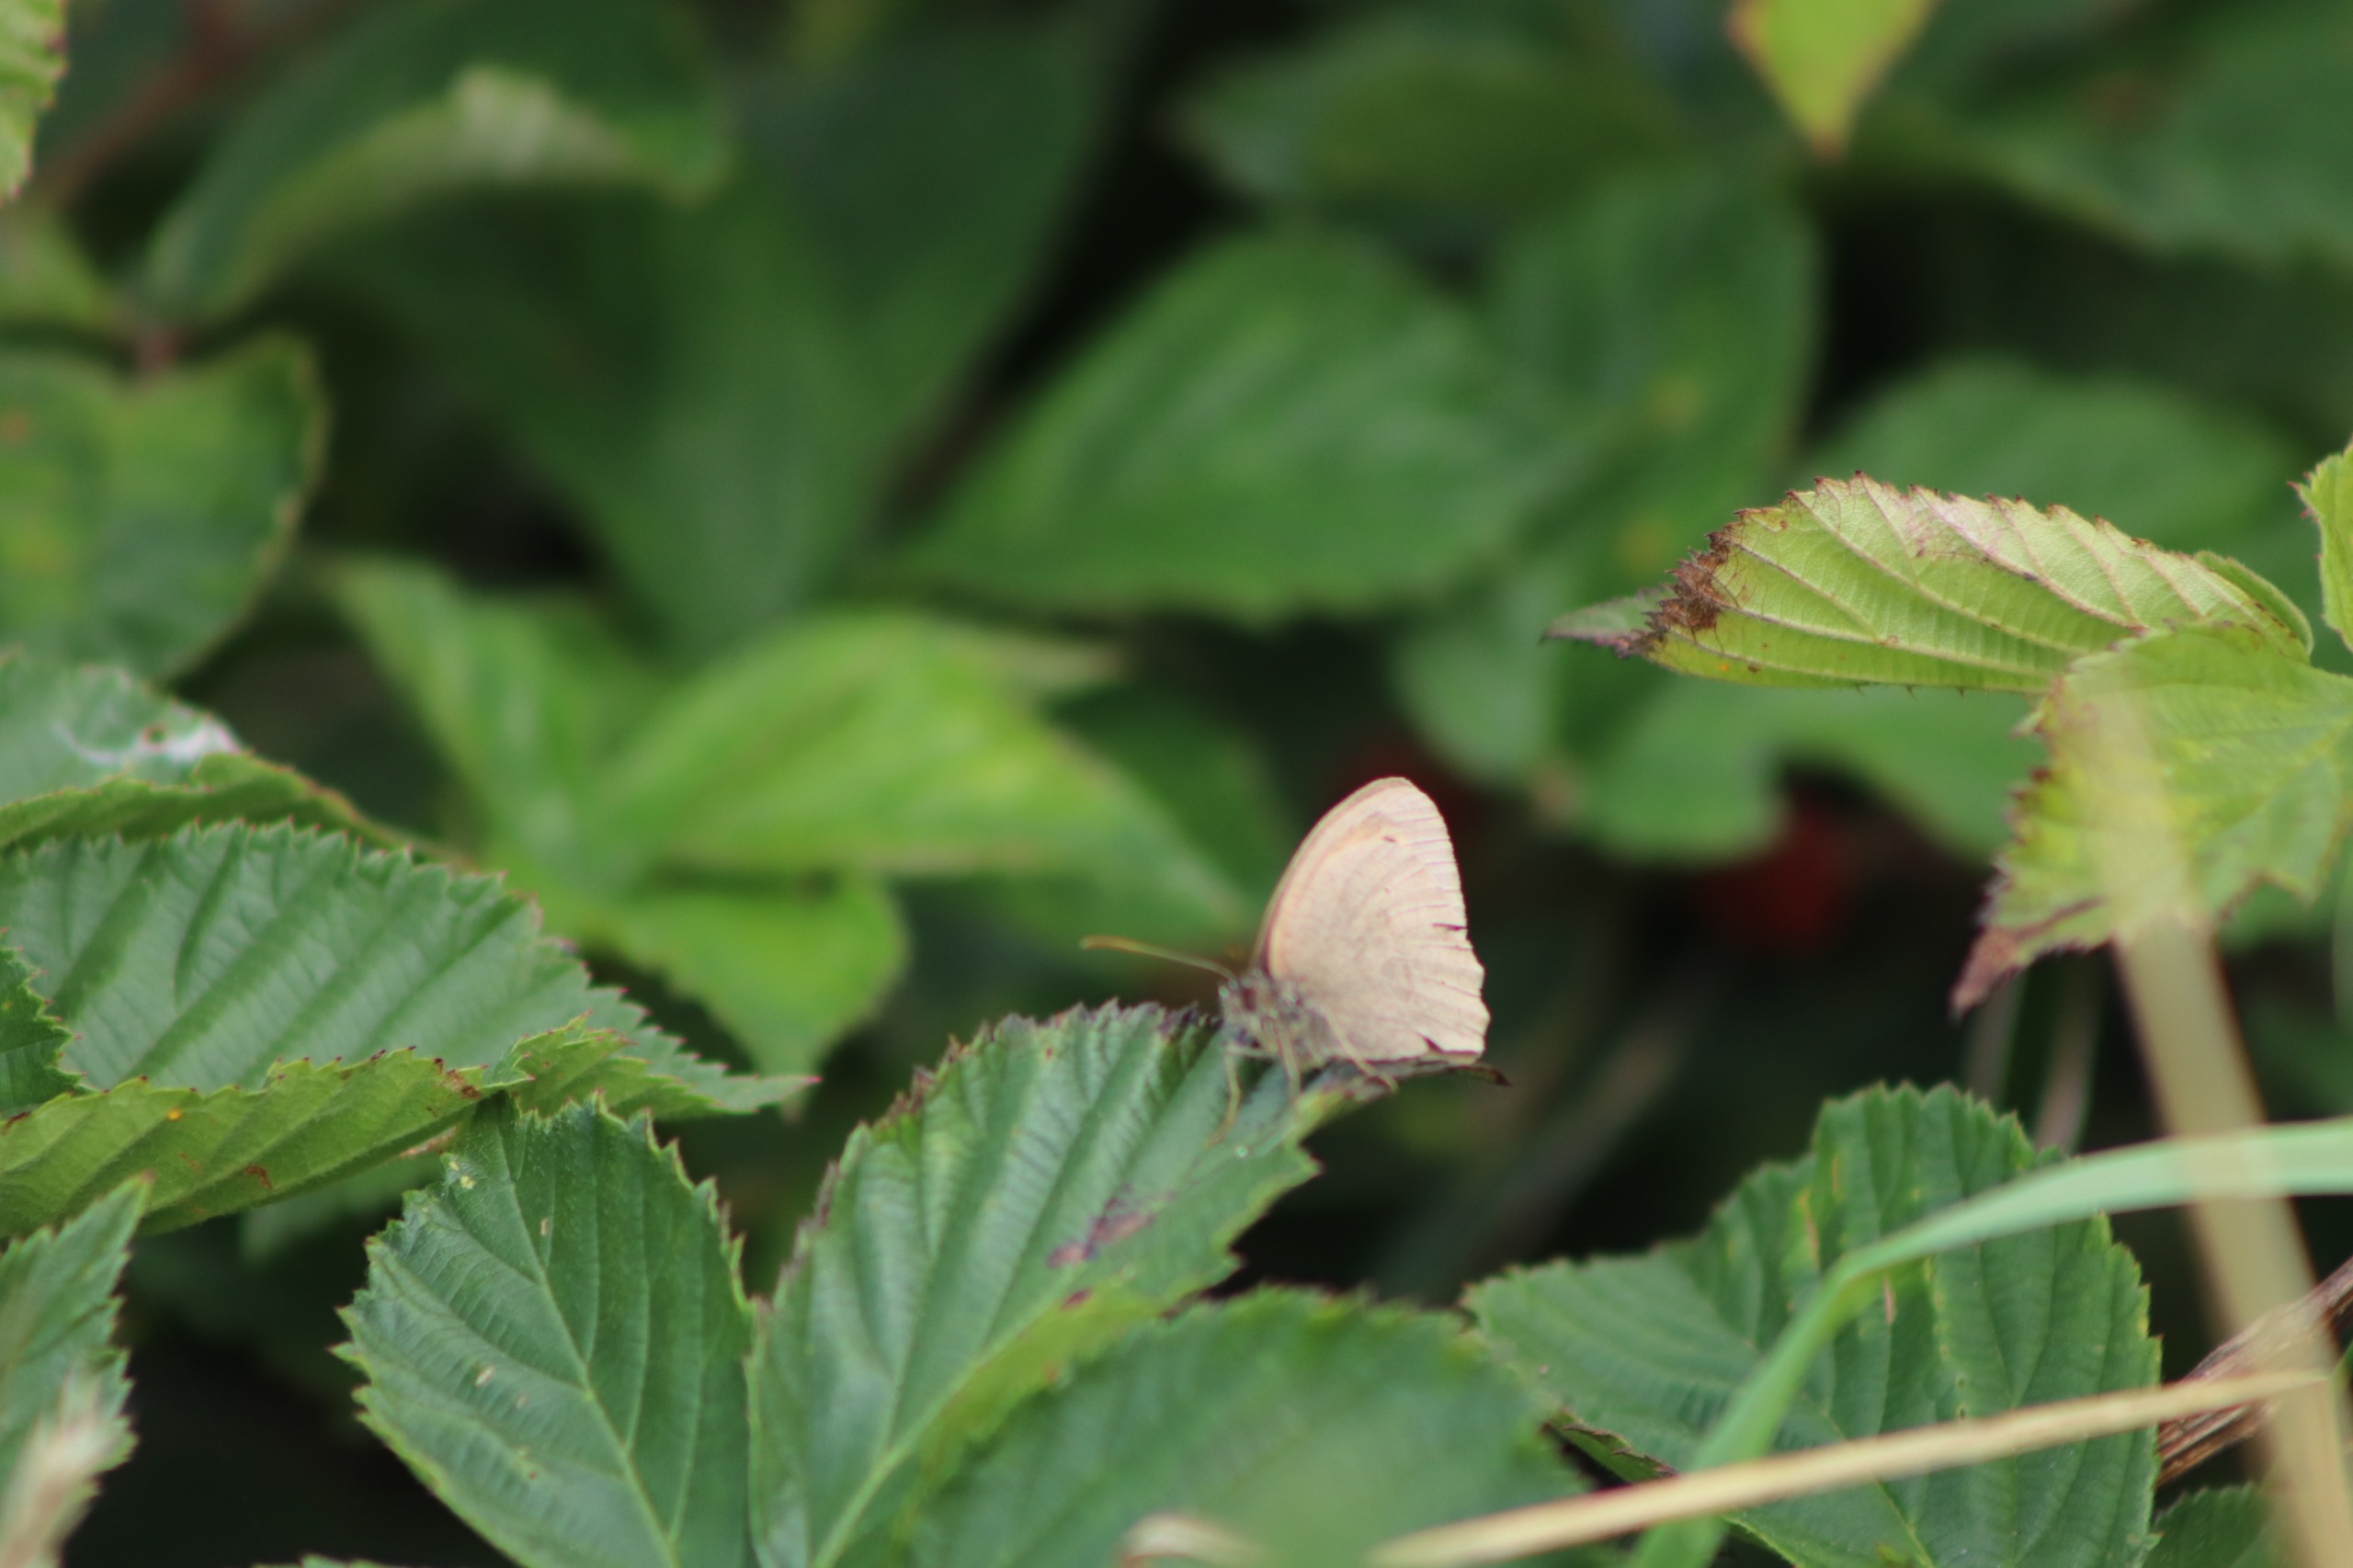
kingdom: Animalia
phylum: Arthropoda
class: Insecta
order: Lepidoptera
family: Nymphalidae
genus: Maniola
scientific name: Maniola jurtina
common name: Græsrandøje
